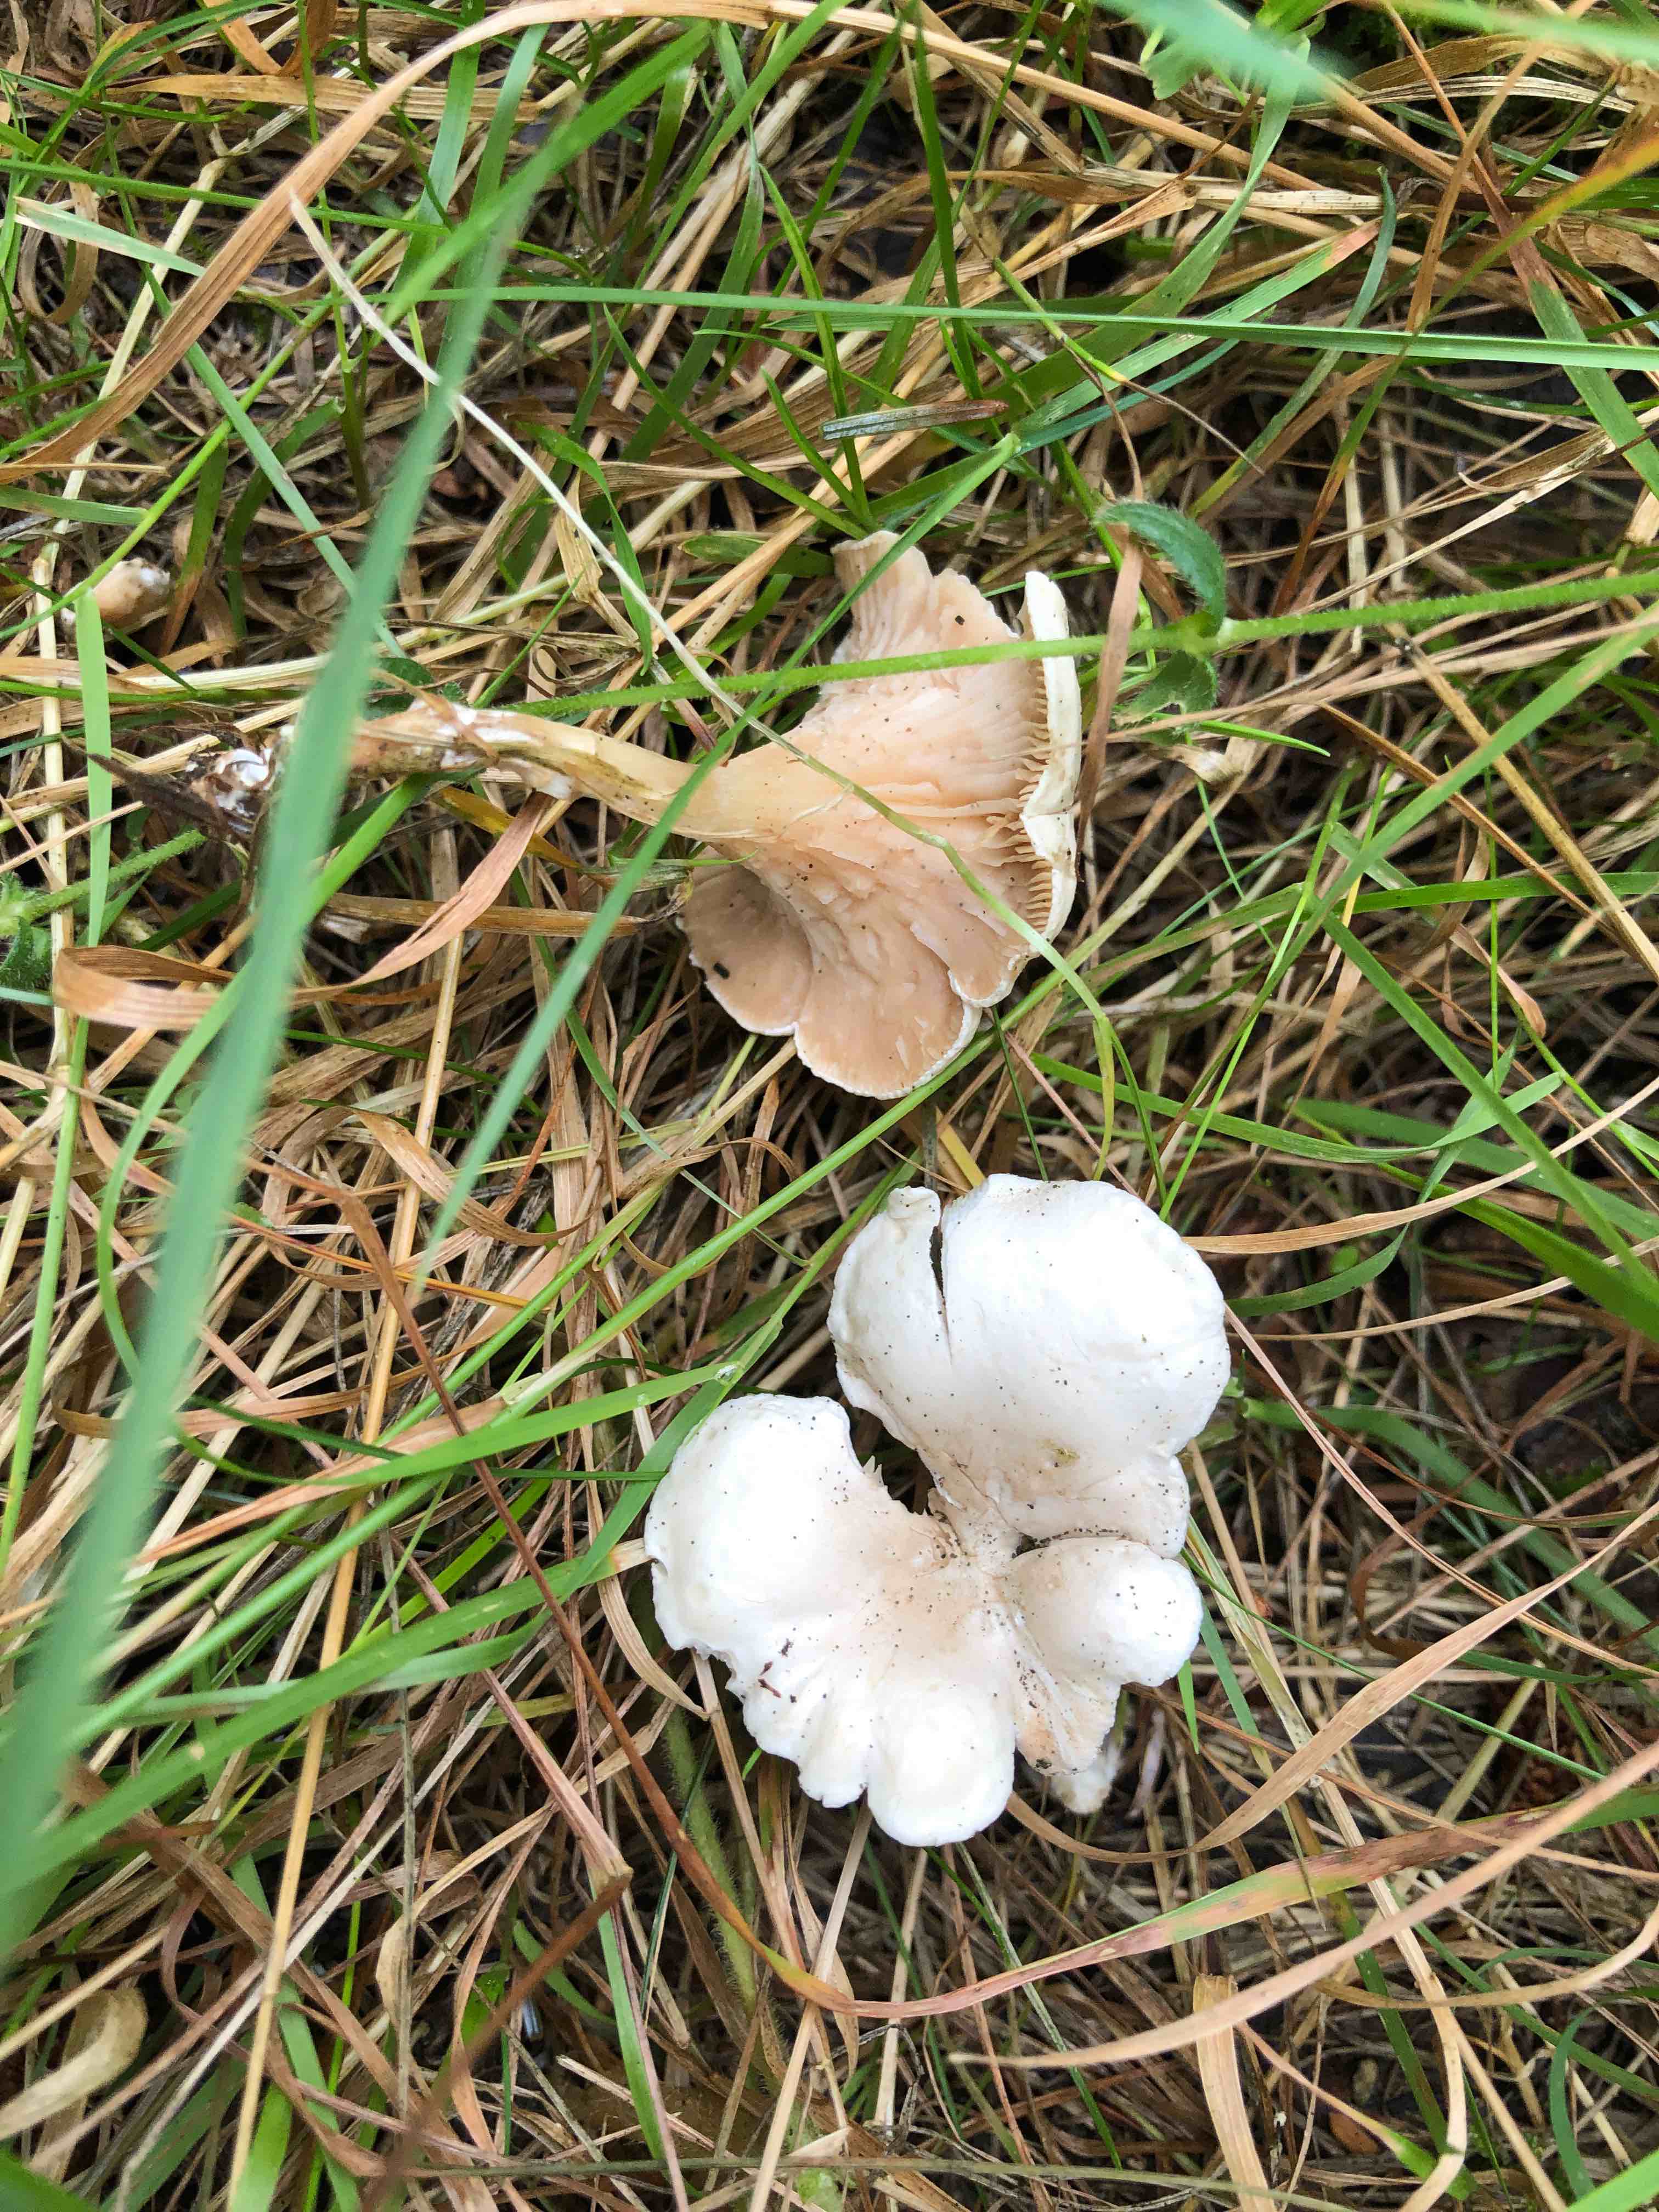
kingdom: Fungi
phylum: Basidiomycota
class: Agaricomycetes
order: Agaricales
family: Entolomataceae
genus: Clitopilus
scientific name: Clitopilus prunulus
